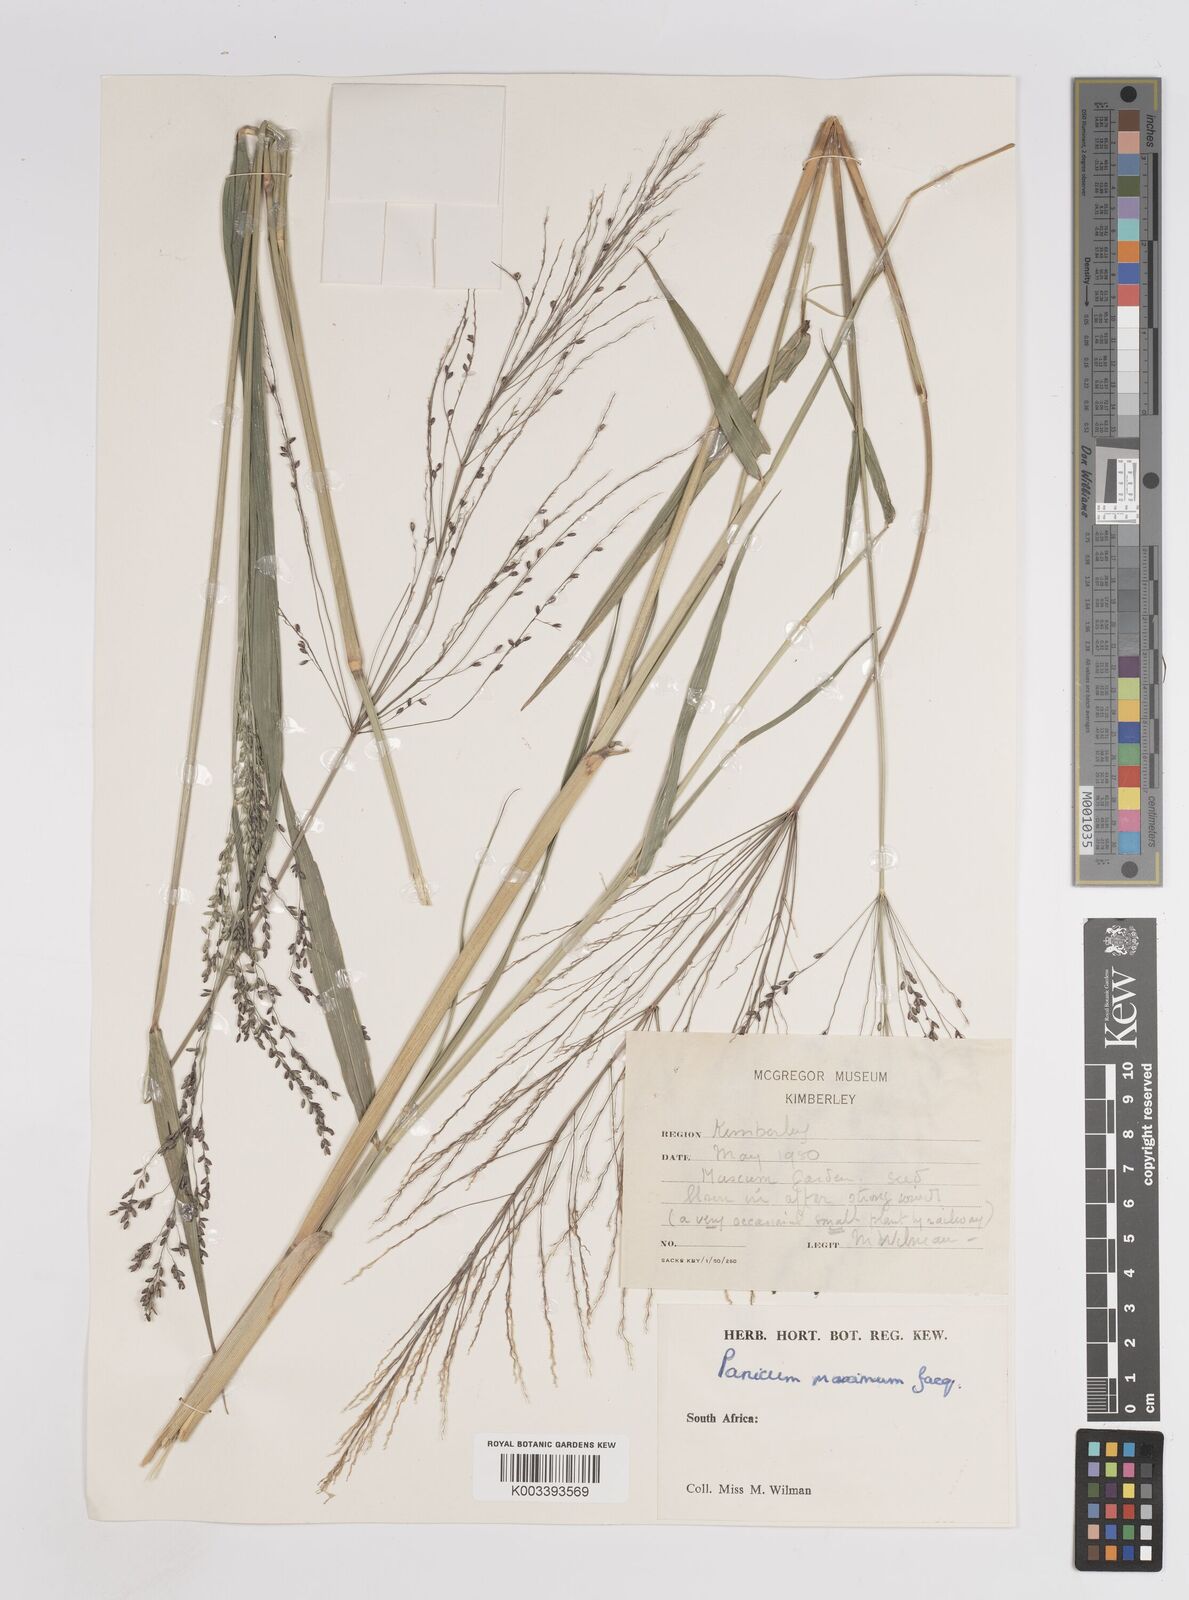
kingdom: Plantae
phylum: Tracheophyta
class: Liliopsida
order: Poales
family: Poaceae
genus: Megathyrsus
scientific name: Megathyrsus maximus
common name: Guineagrass
